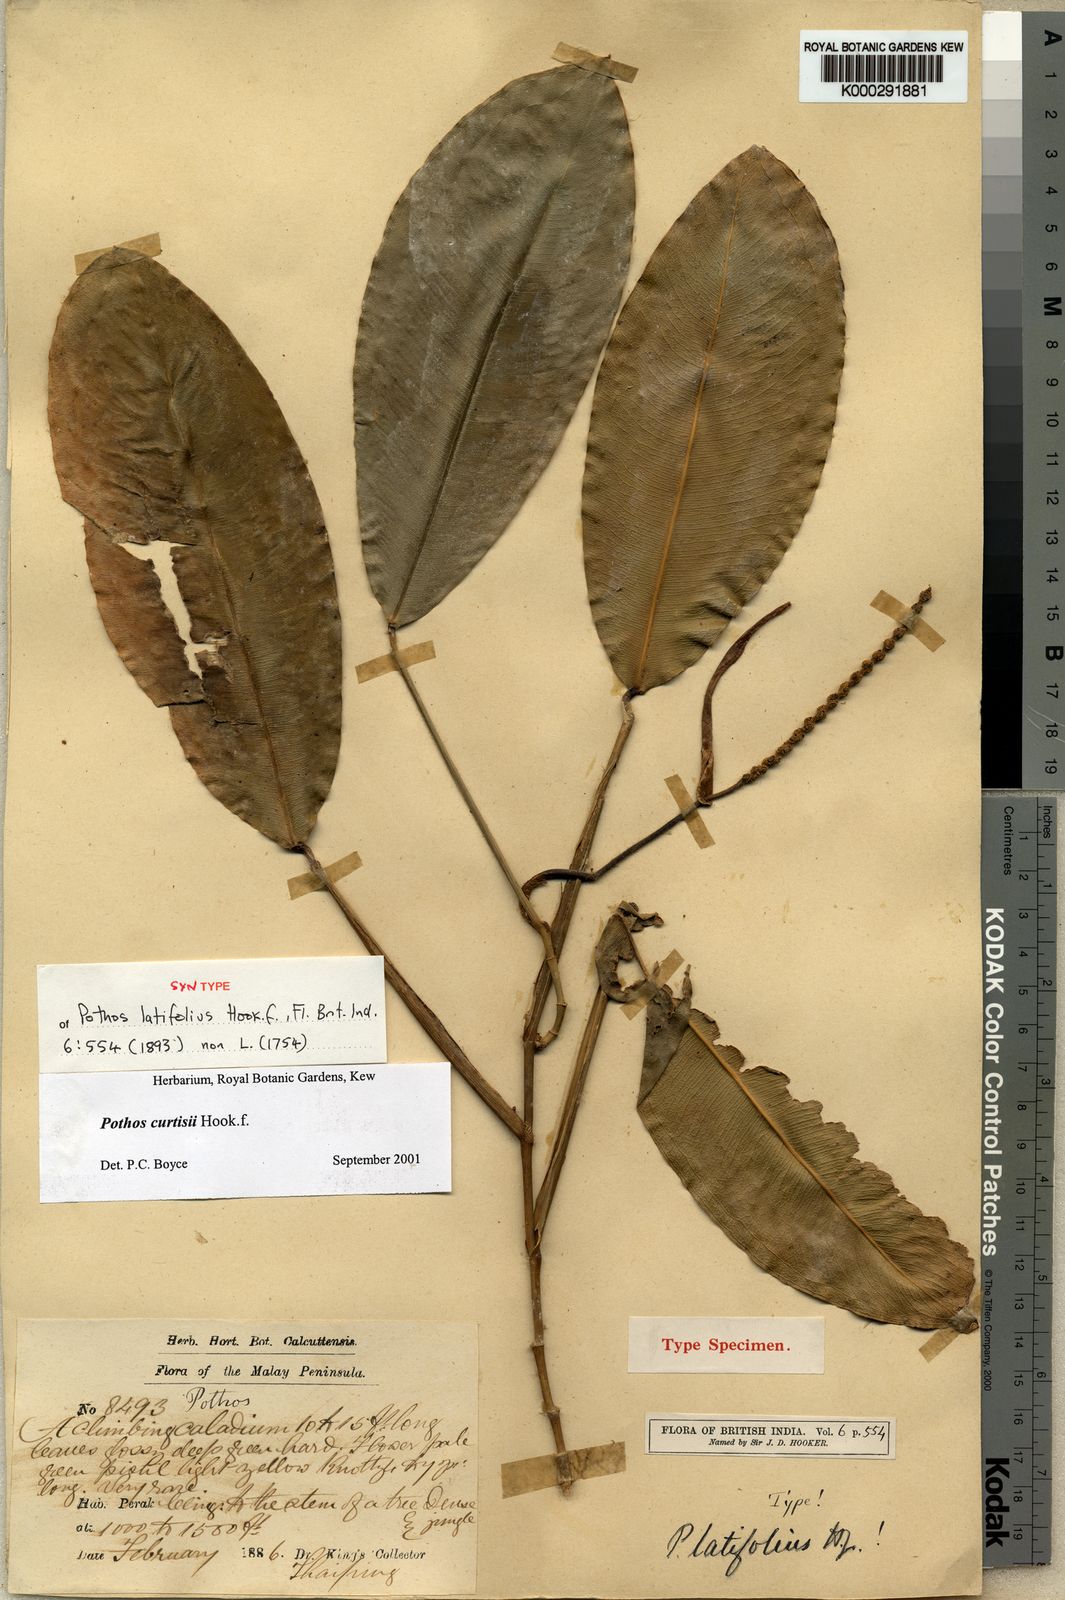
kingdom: Plantae
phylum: Tracheophyta
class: Liliopsida
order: Alismatales
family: Araceae
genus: Pothos
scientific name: Pothos curtisii
